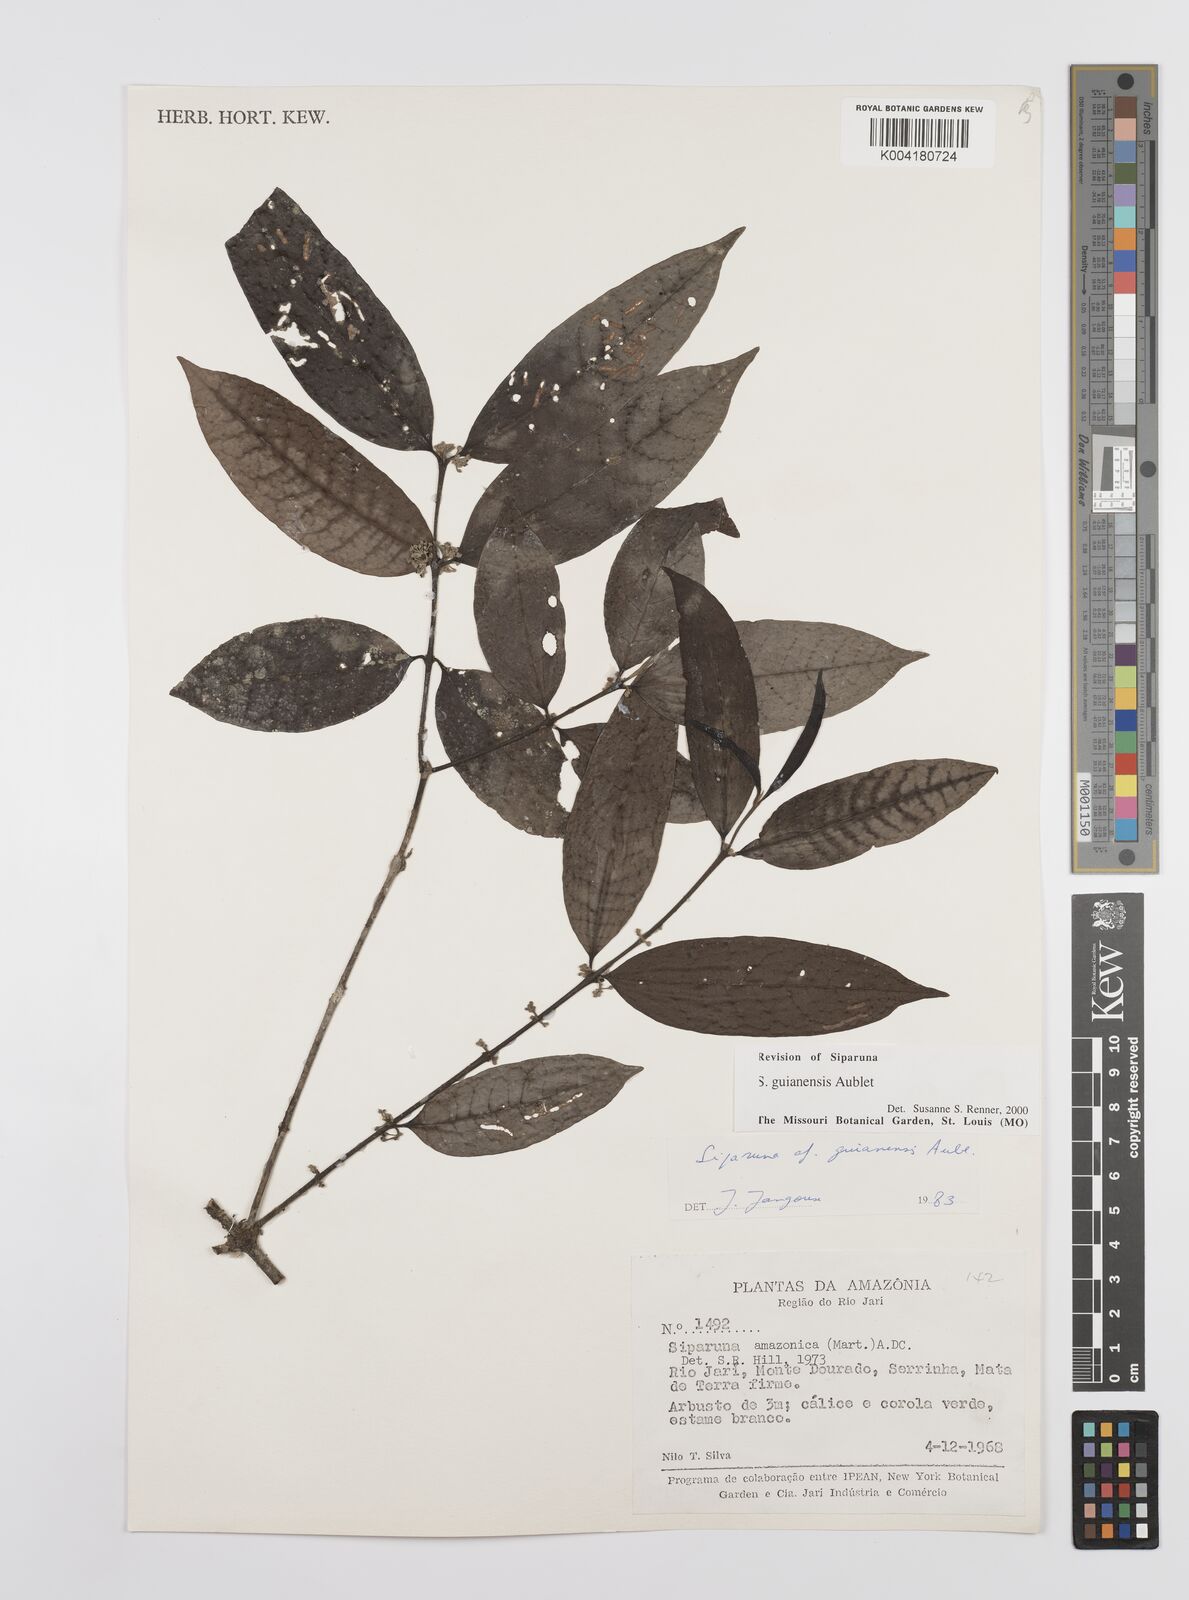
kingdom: Plantae
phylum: Tracheophyta
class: Magnoliopsida
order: Laurales
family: Siparunaceae
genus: Siparuna
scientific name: Siparuna guianensis
